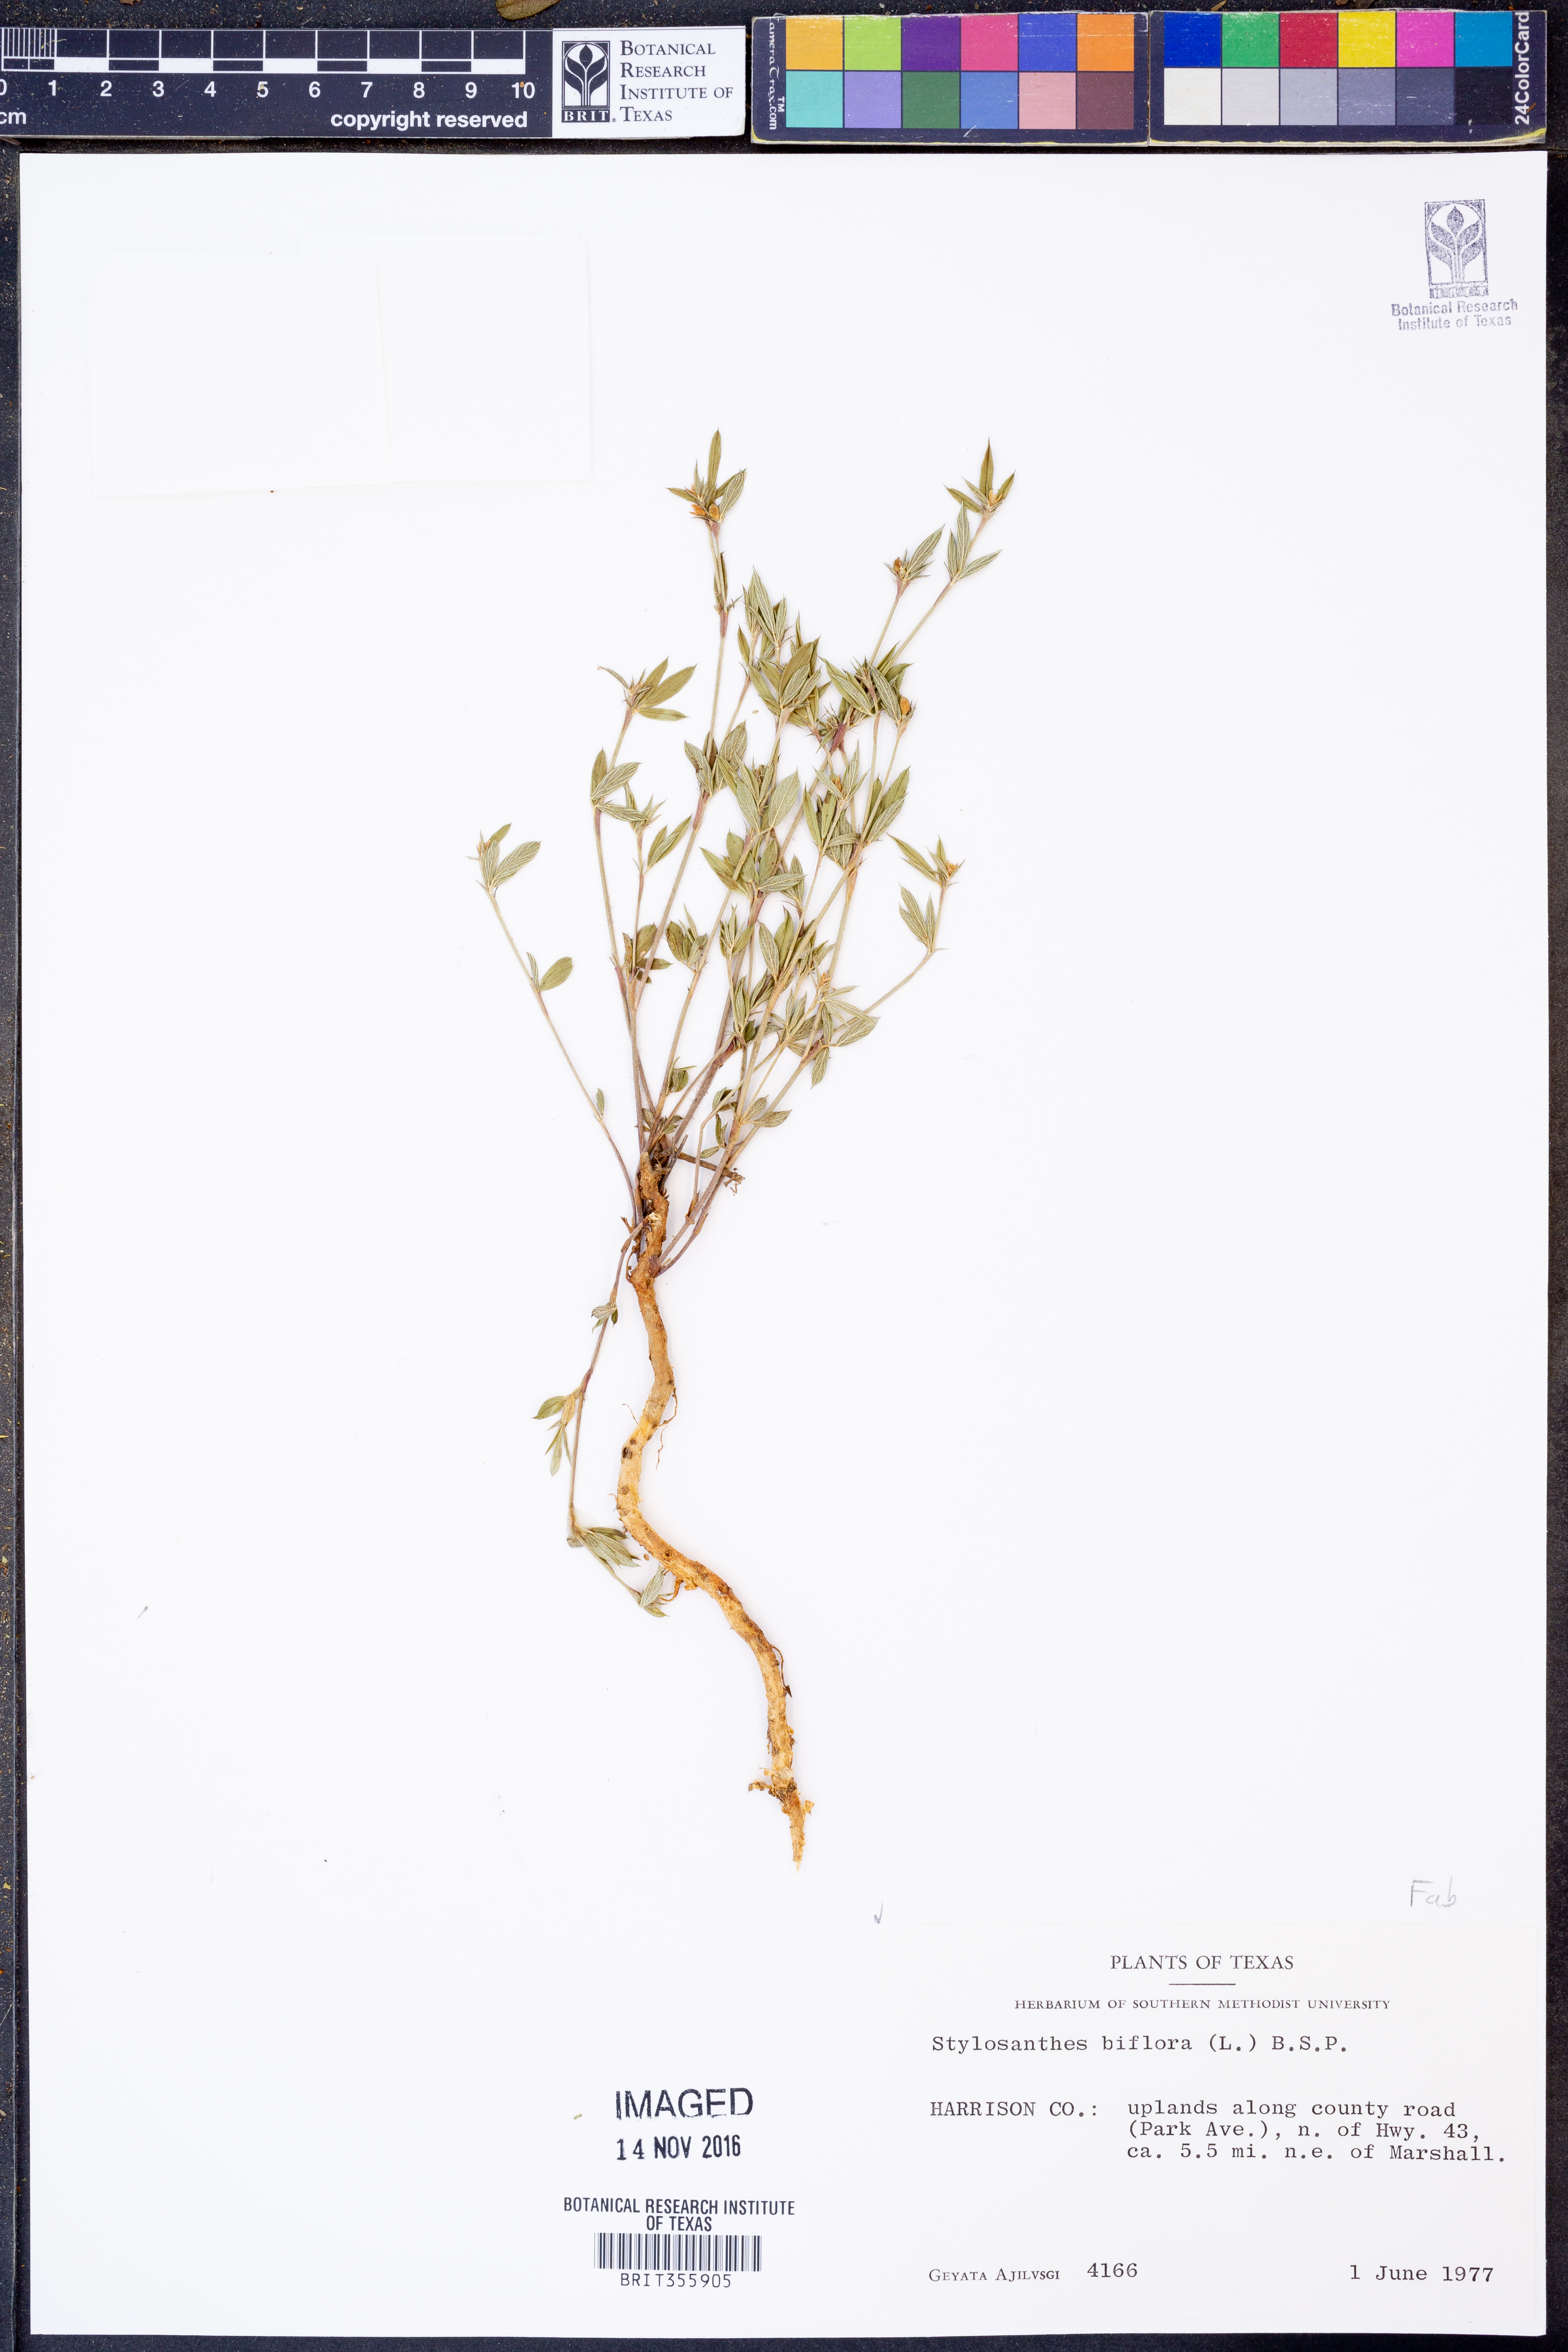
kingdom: Plantae
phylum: Tracheophyta
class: Magnoliopsida
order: Fabales
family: Fabaceae
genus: Stylosanthes
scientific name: Stylosanthes biflora
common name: Two-flower pencil-flower
